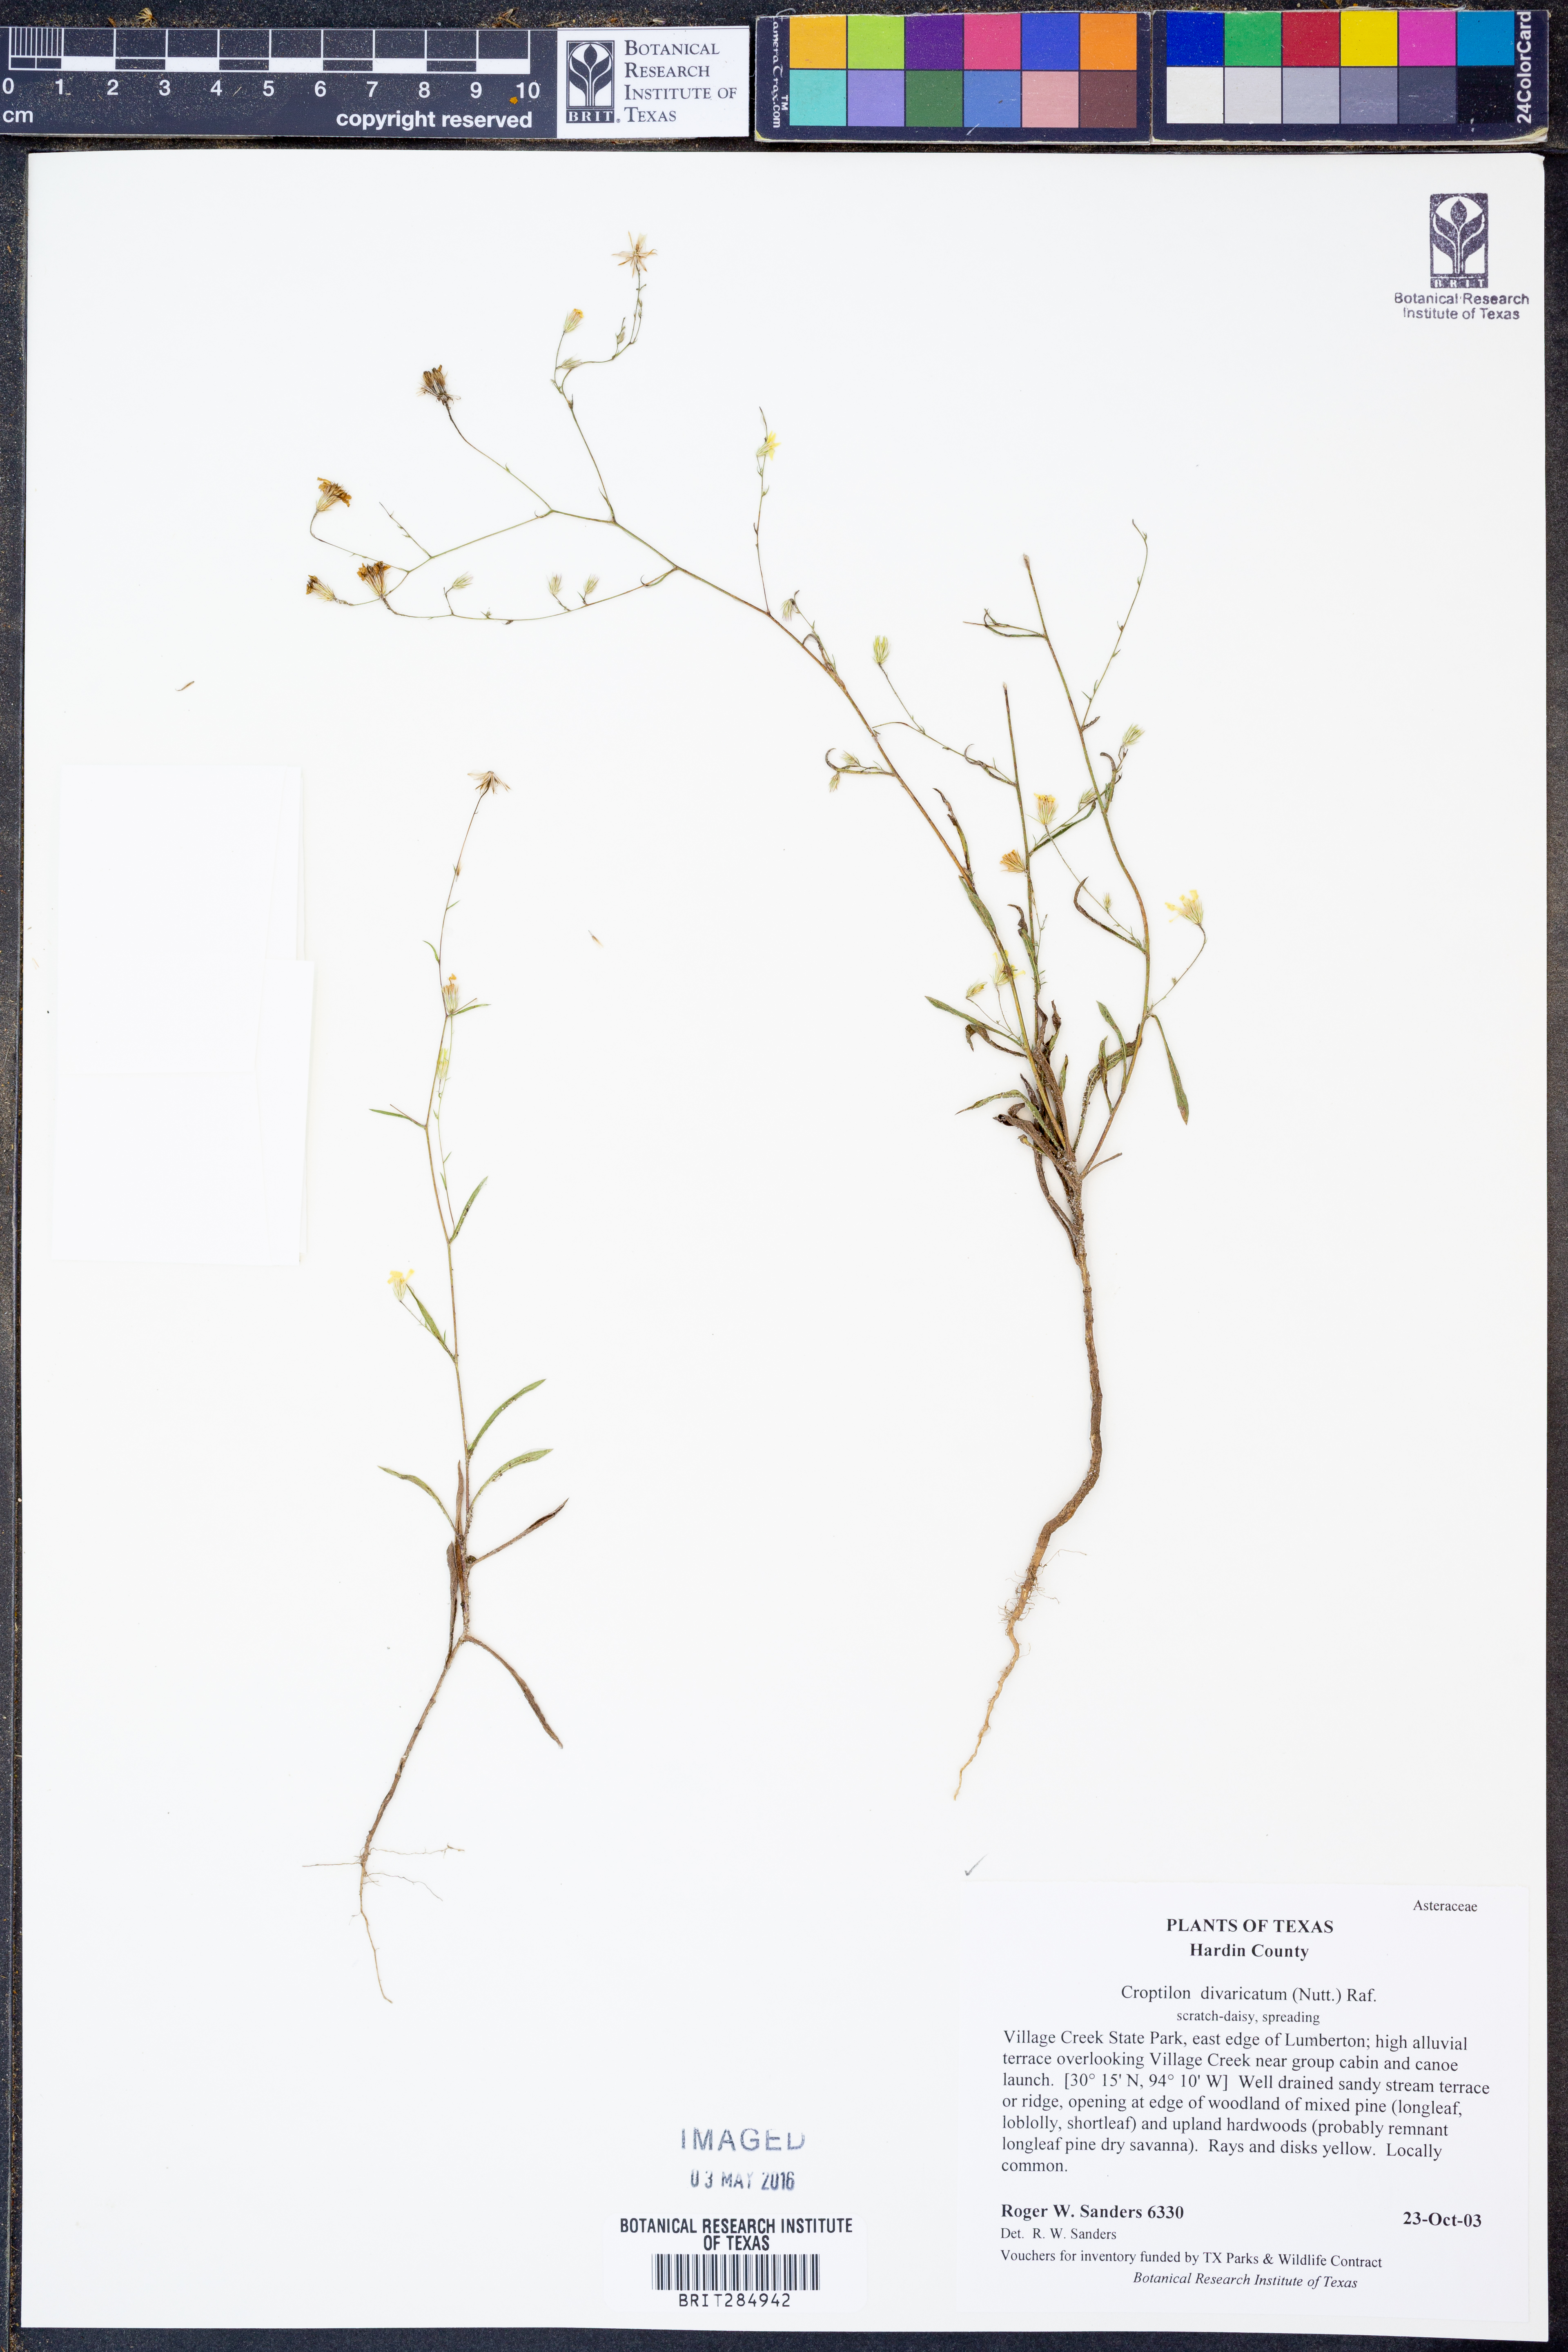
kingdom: Plantae
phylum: Tracheophyta
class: Magnoliopsida
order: Asterales
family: Asteraceae
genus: Croptilon
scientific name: Croptilon divaricatum
